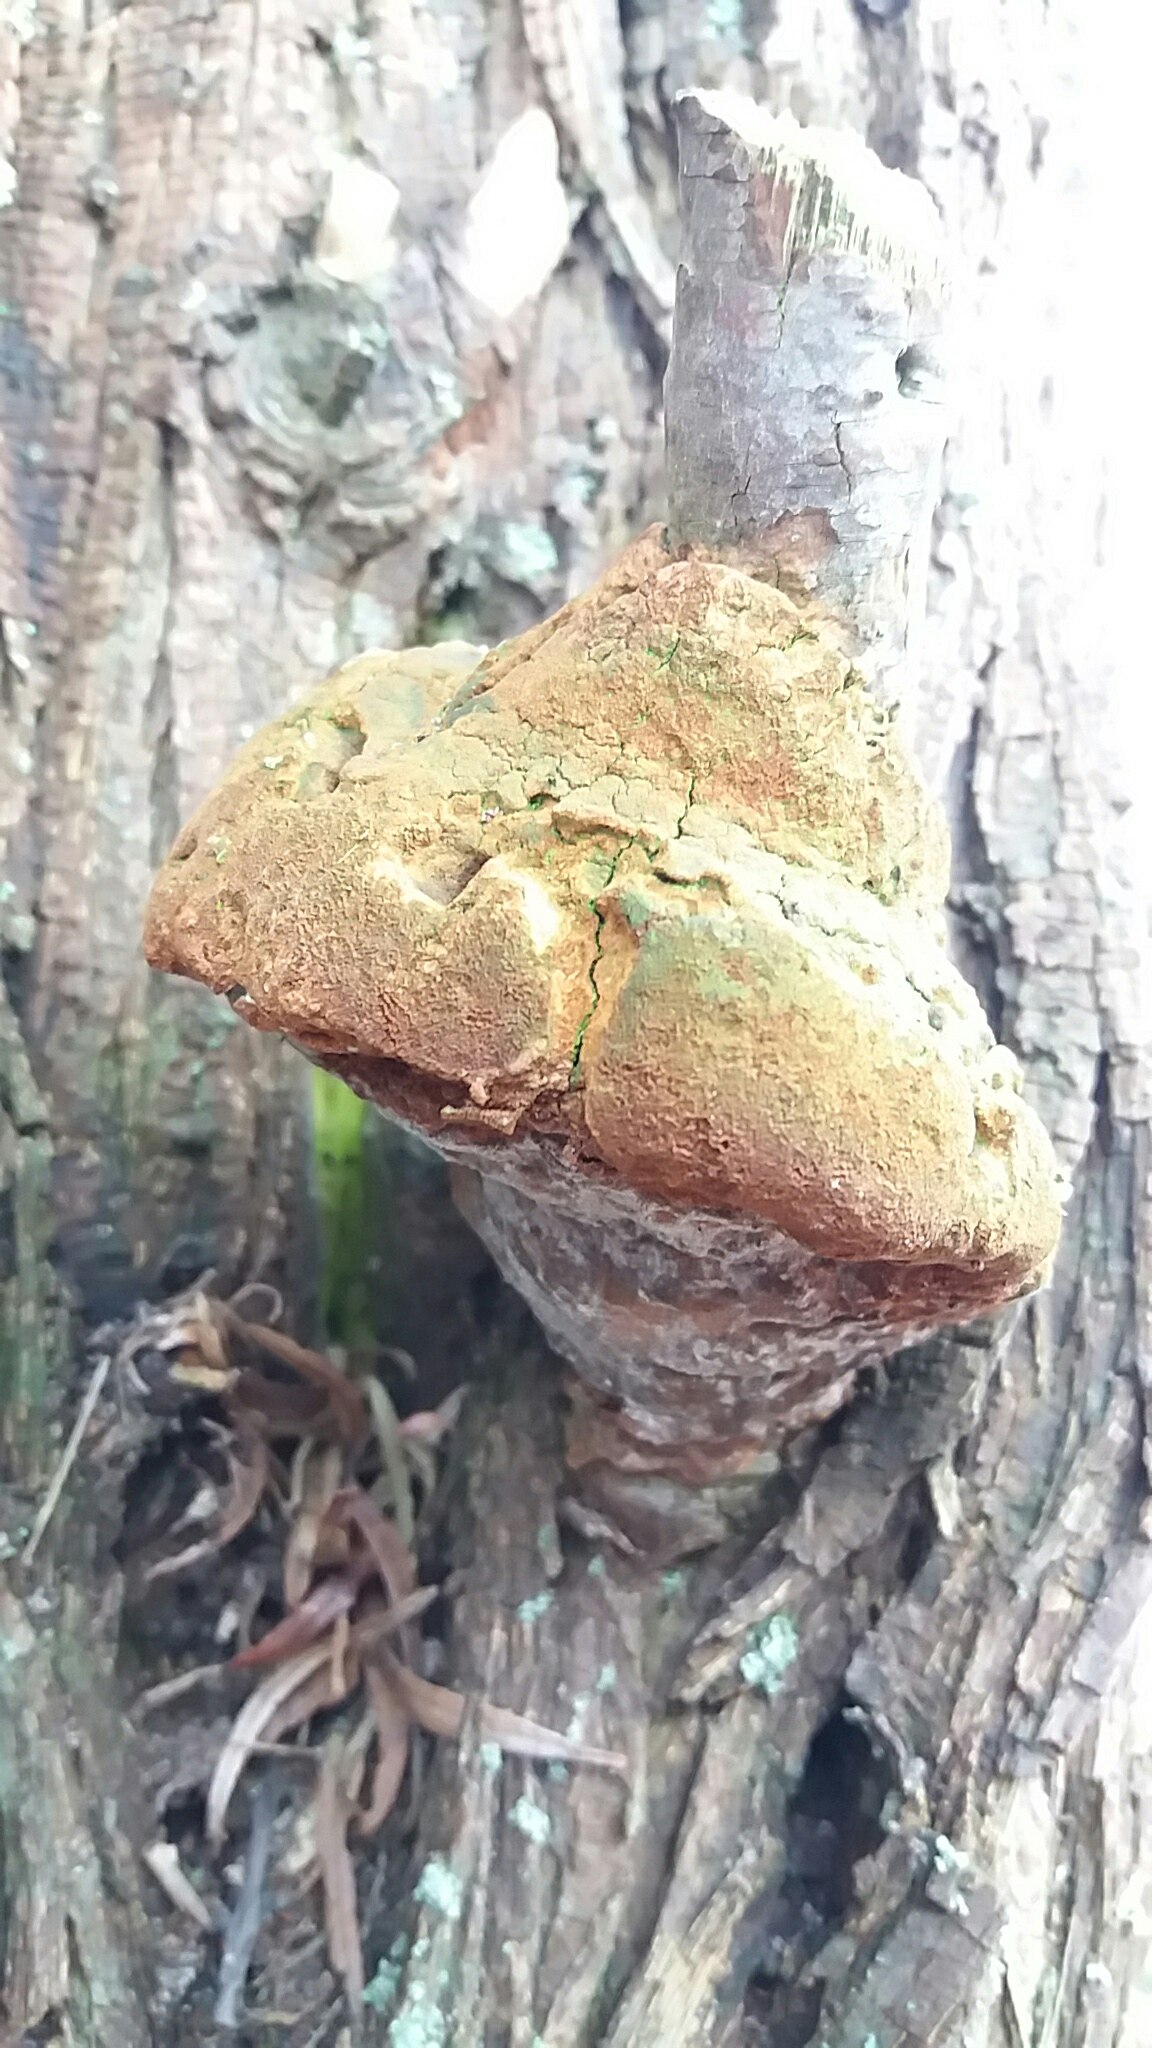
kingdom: Fungi
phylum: Basidiomycota
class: Agaricomycetes
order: Hymenochaetales
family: Hymenochaetaceae
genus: Phellinus
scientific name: Phellinus pomaceus
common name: blomme-ildporesvamp
